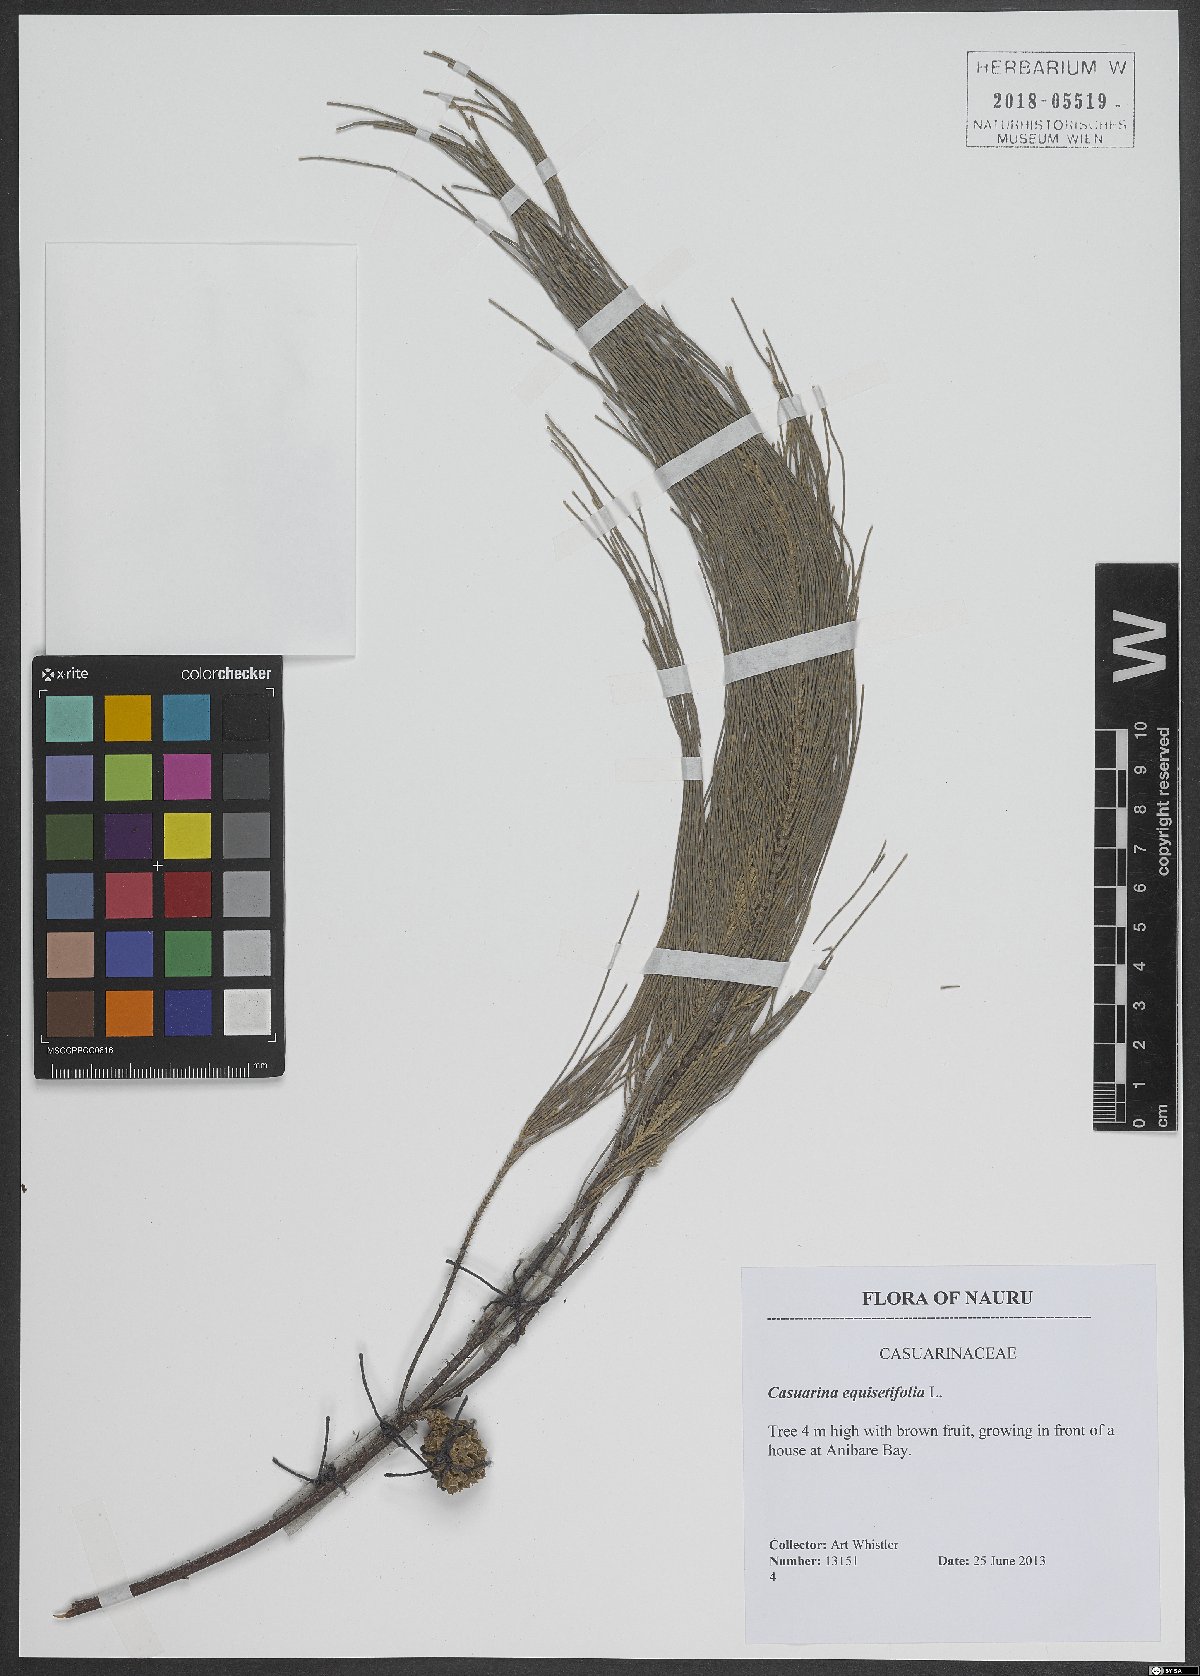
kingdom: Plantae
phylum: Tracheophyta
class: Magnoliopsida
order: Fagales
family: Casuarinaceae
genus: Casuarina
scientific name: Casuarina equisetifolia
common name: Beach sheoak
